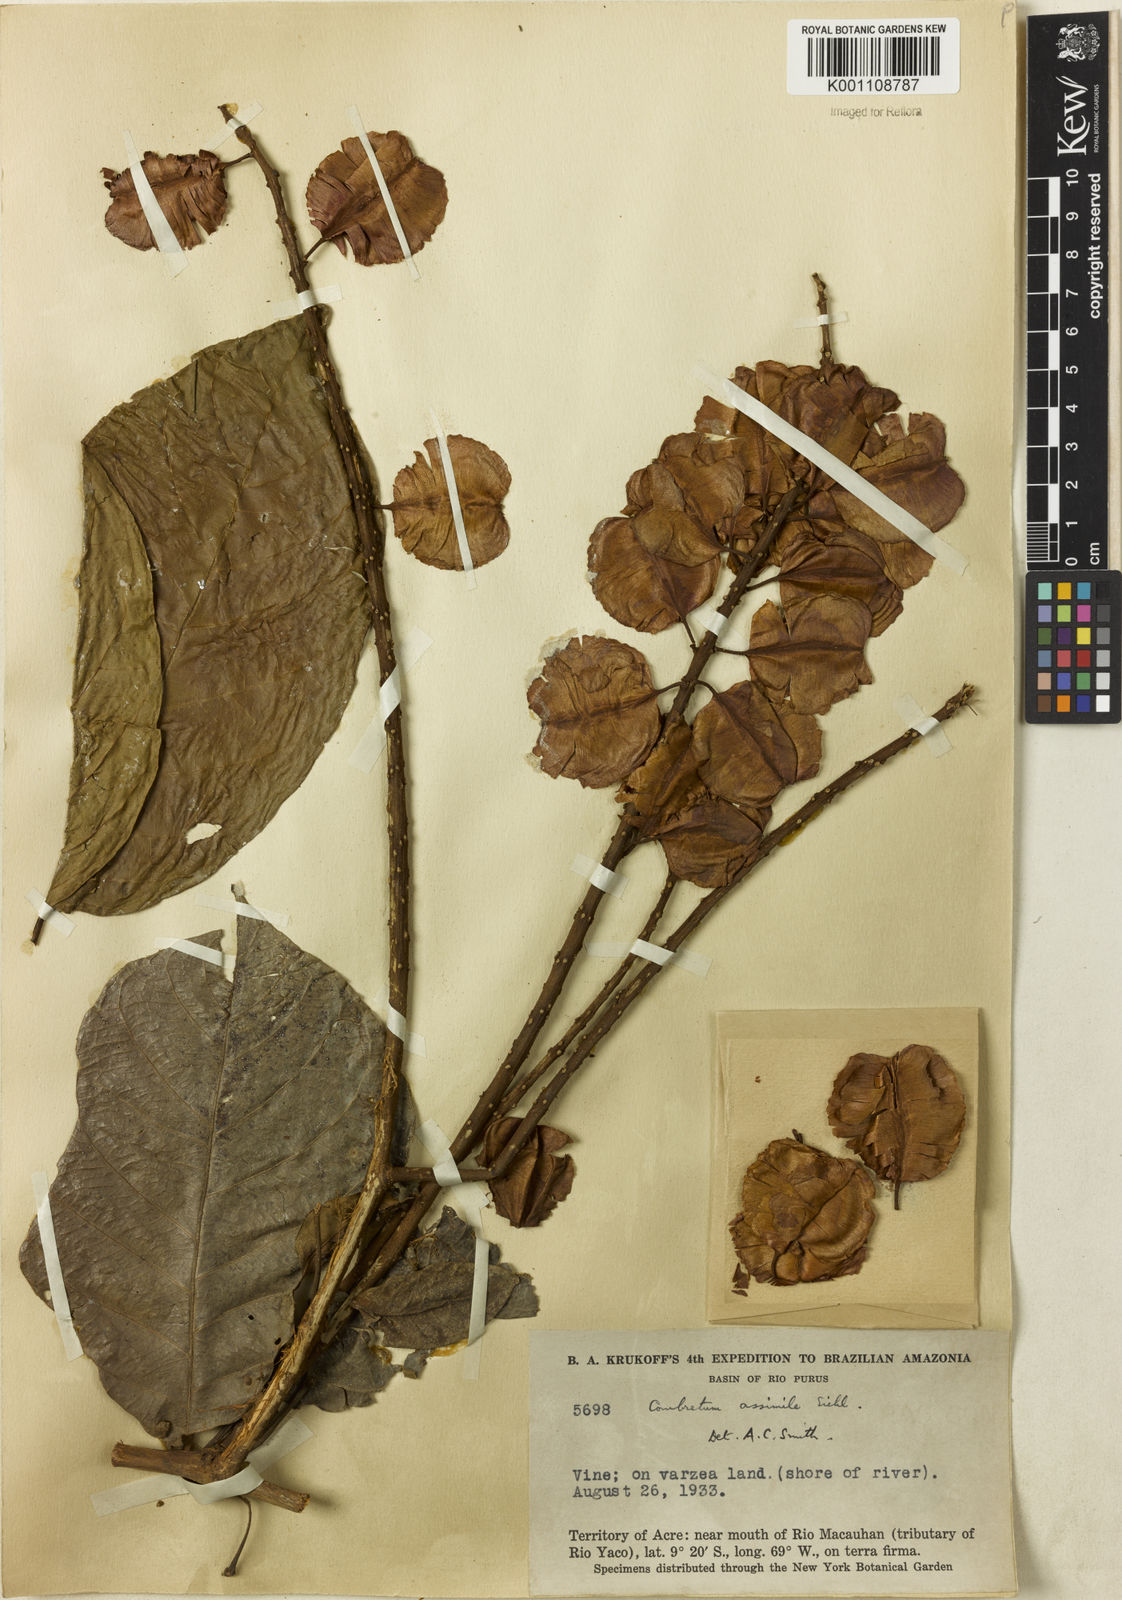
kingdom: Plantae
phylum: Tracheophyta
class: Magnoliopsida
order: Myrtales
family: Combretaceae
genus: Combretum
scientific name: Combretum assimile
